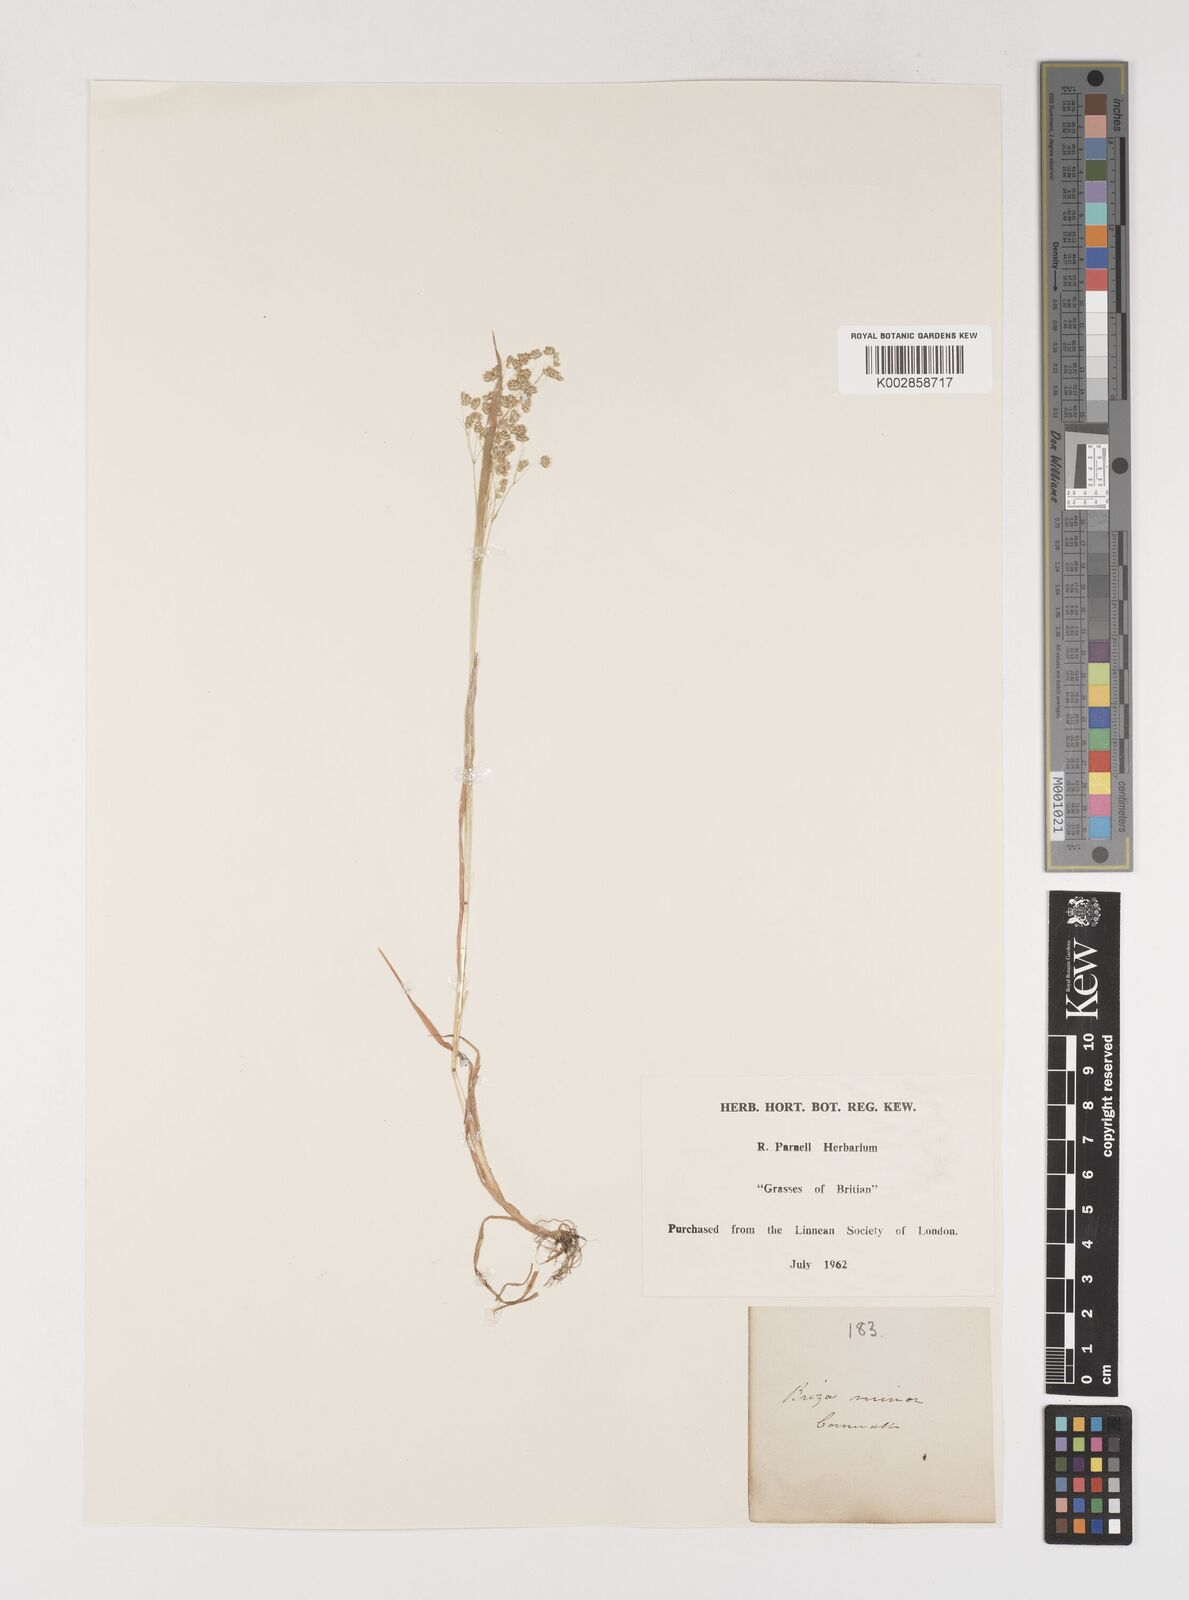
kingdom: Plantae
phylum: Tracheophyta
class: Liliopsida
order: Poales
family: Poaceae
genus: Briza
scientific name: Briza minor
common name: Lesser quaking-grass
